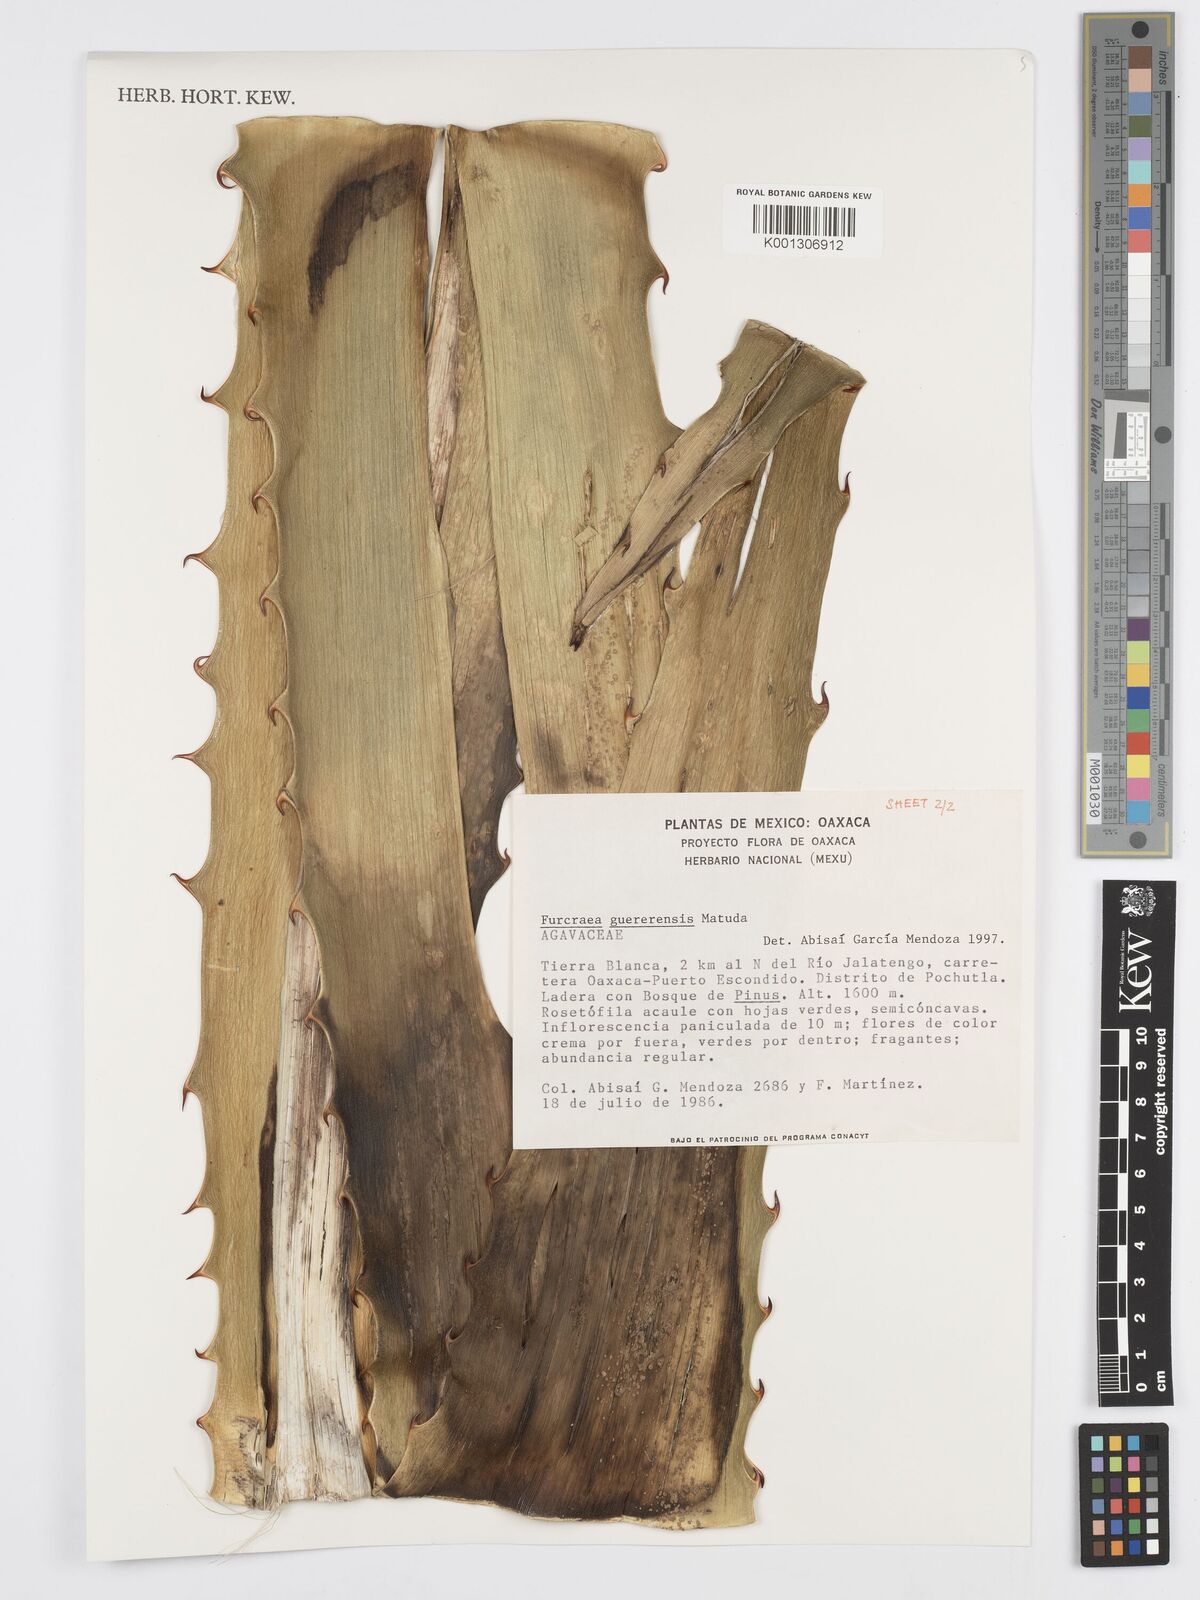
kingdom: Plantae
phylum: Tracheophyta
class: Liliopsida
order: Asparagales
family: Asparagaceae
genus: Furcraea
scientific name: Furcraea guerrerensis
